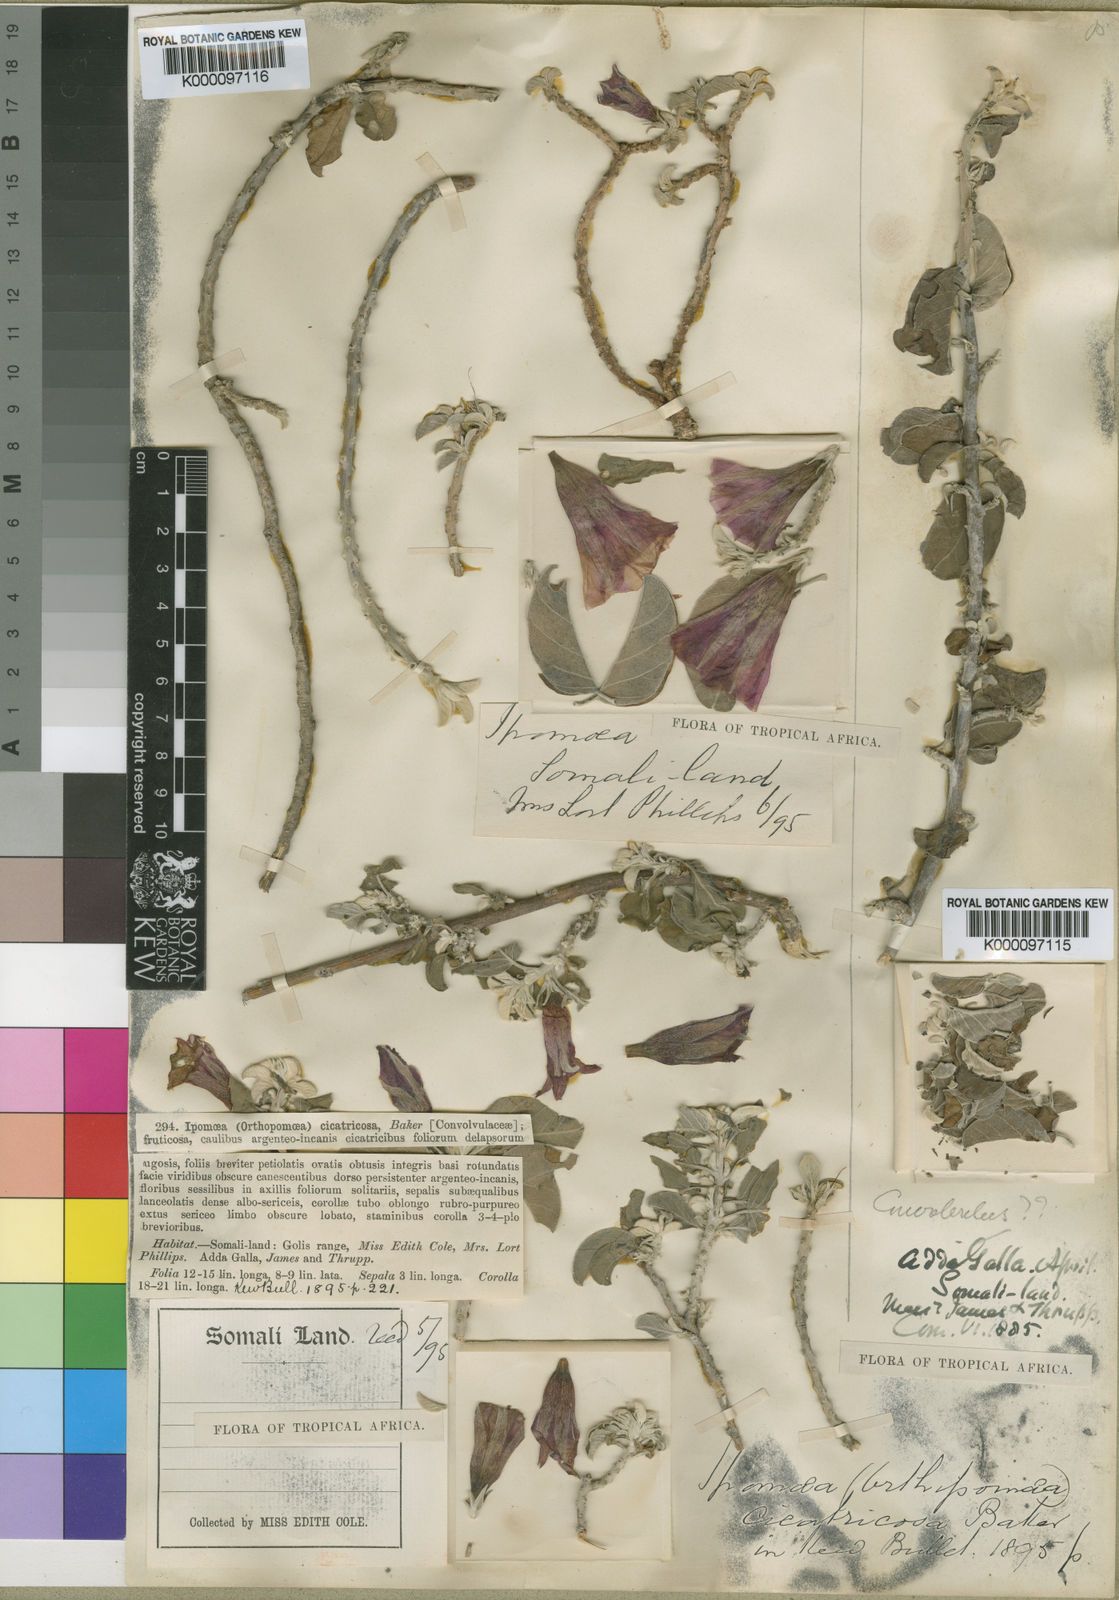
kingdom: Plantae
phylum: Tracheophyta
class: Magnoliopsida
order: Solanales
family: Convolvulaceae
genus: Ipomoea
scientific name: Ipomoea cicatricosa
